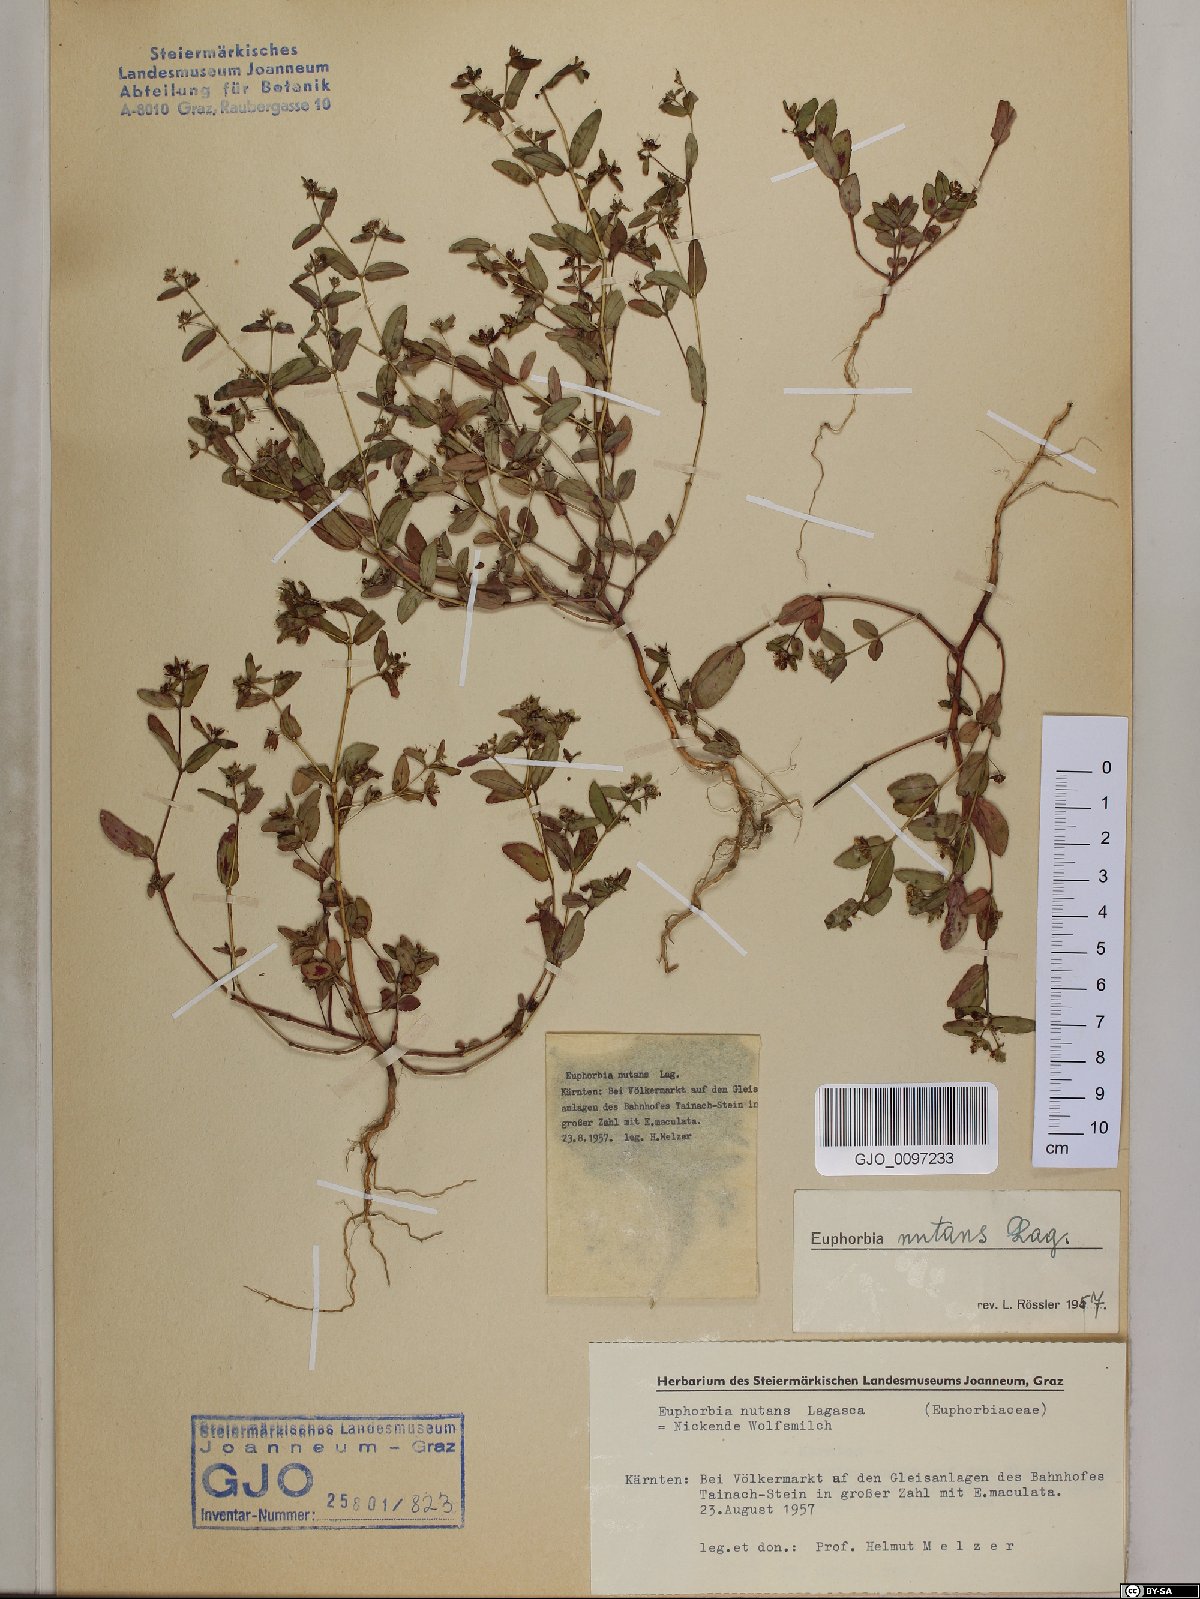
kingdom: Plantae
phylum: Tracheophyta
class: Magnoliopsida
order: Malpighiales
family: Euphorbiaceae
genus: Euphorbia
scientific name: Euphorbia nutans
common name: Eyebane
